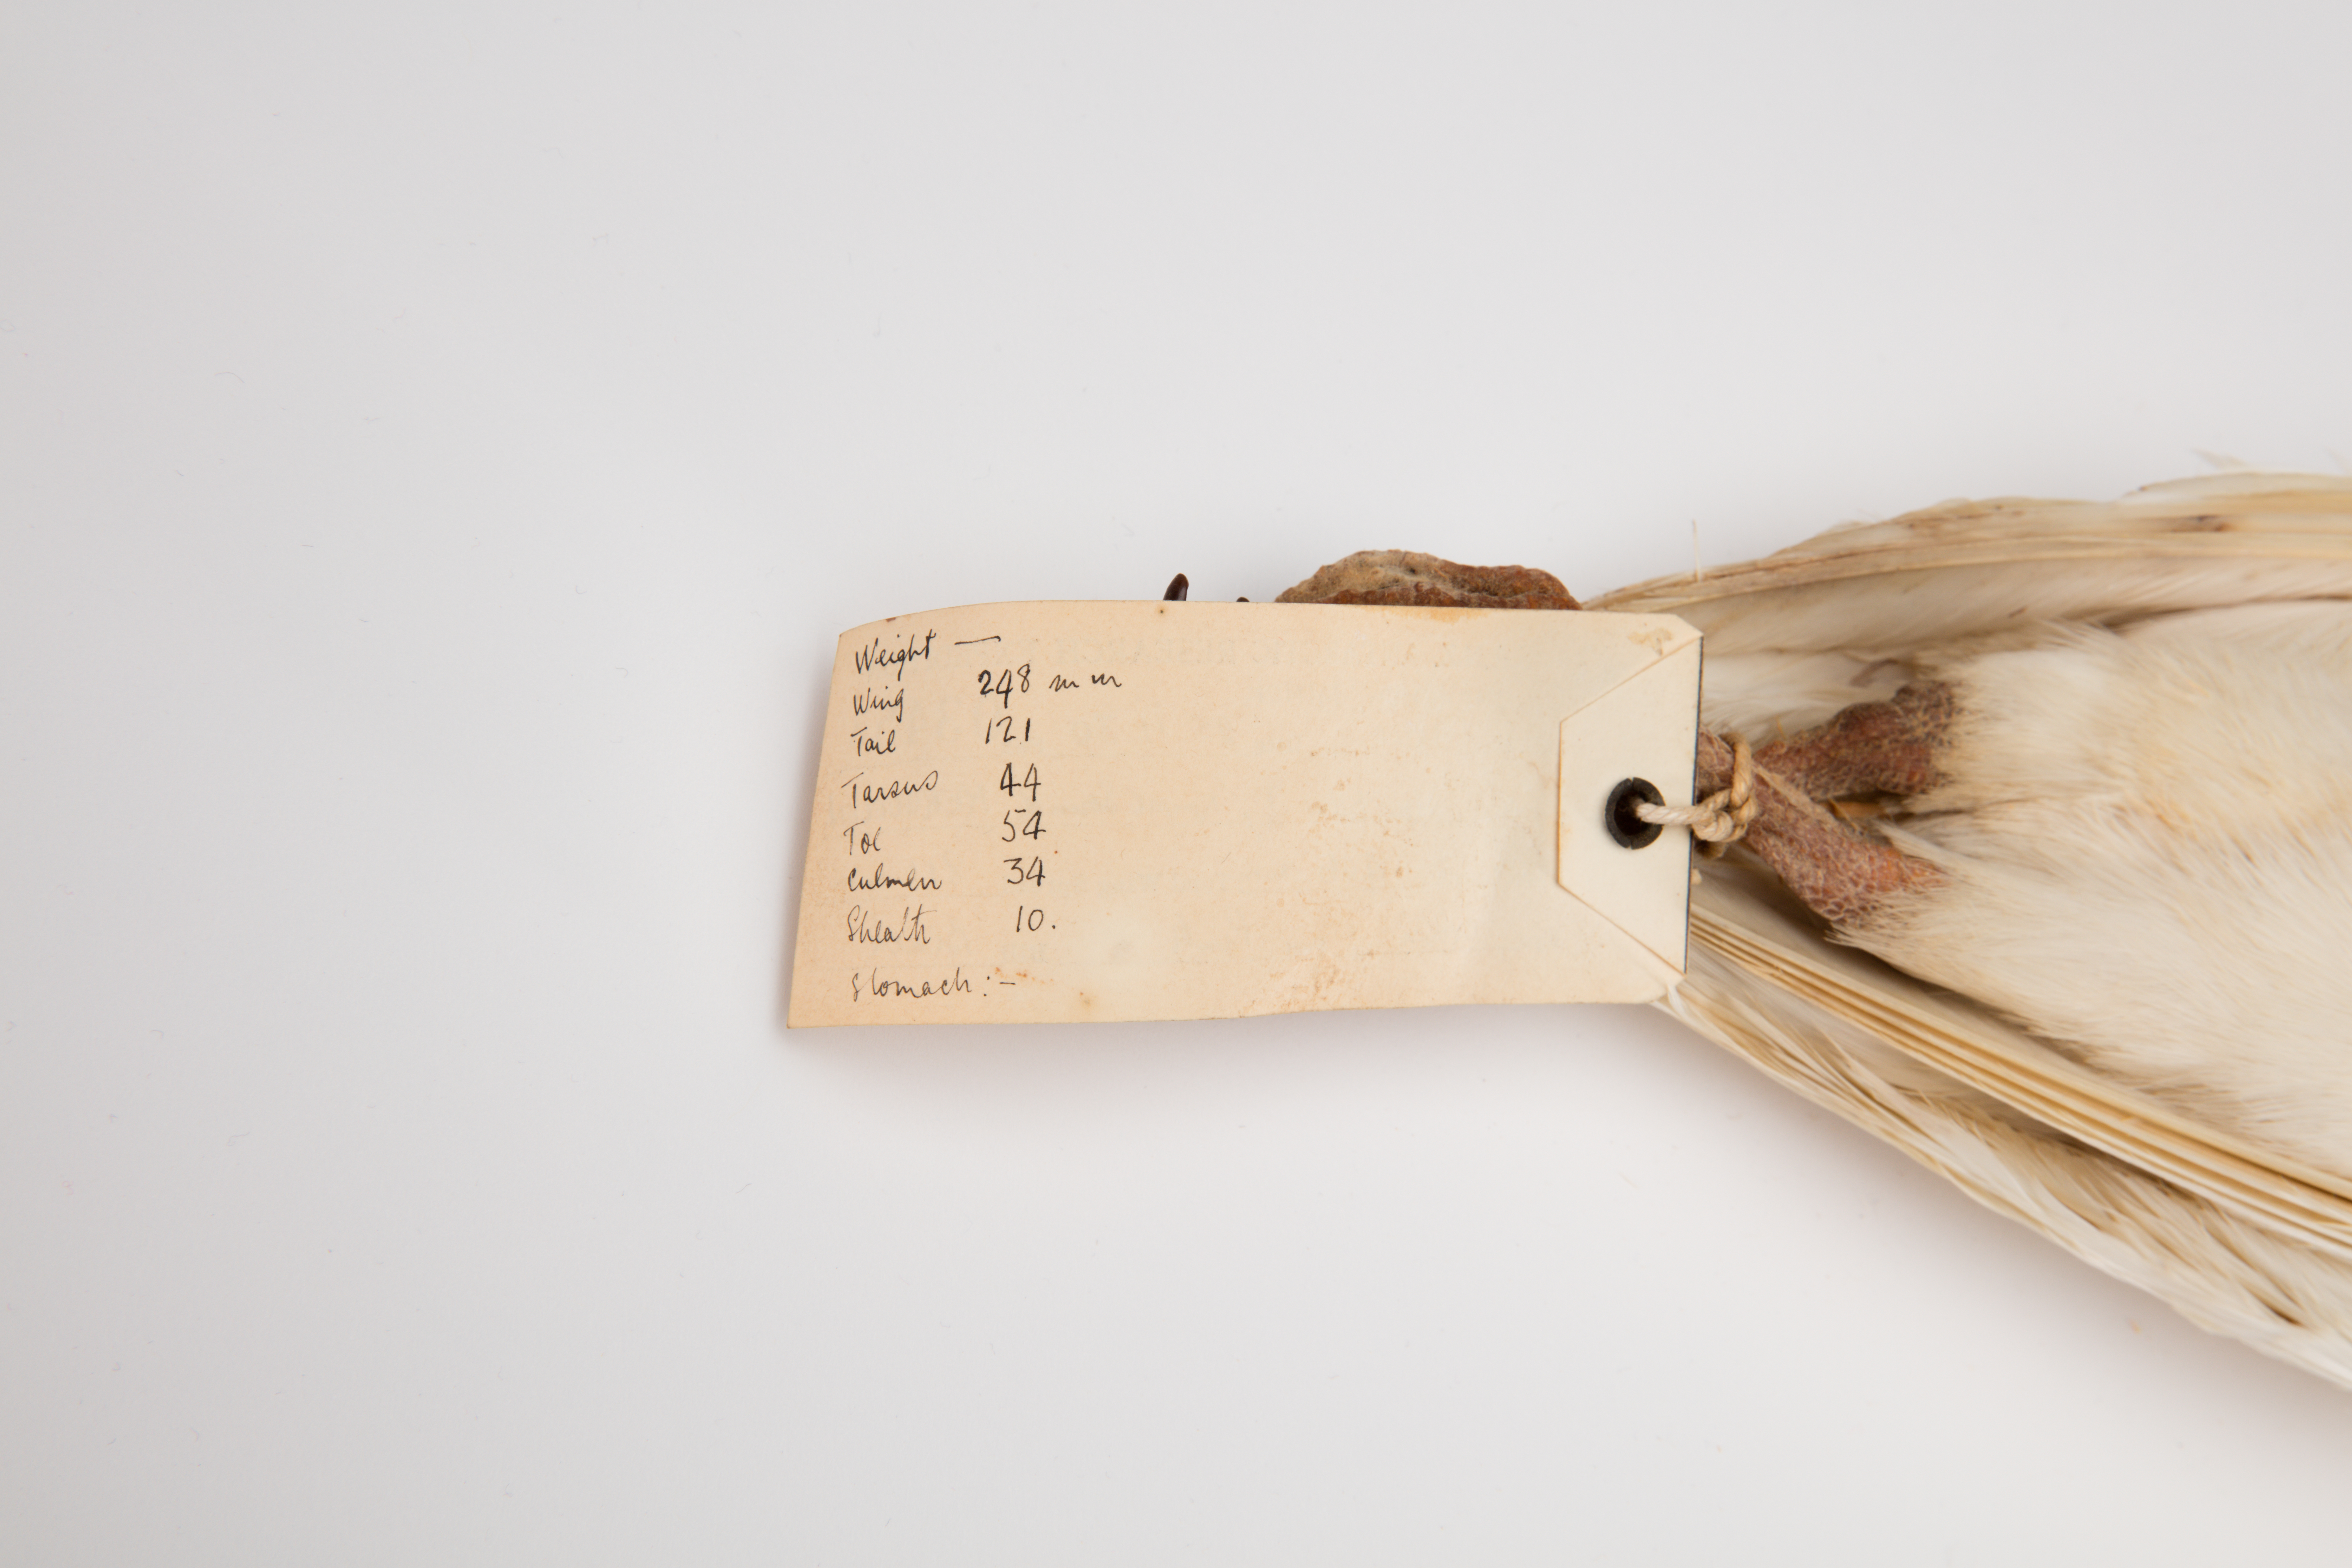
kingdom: Animalia
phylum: Chordata
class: Aves
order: Charadriiformes
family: Chionidae
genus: Chionis
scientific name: Chionis
